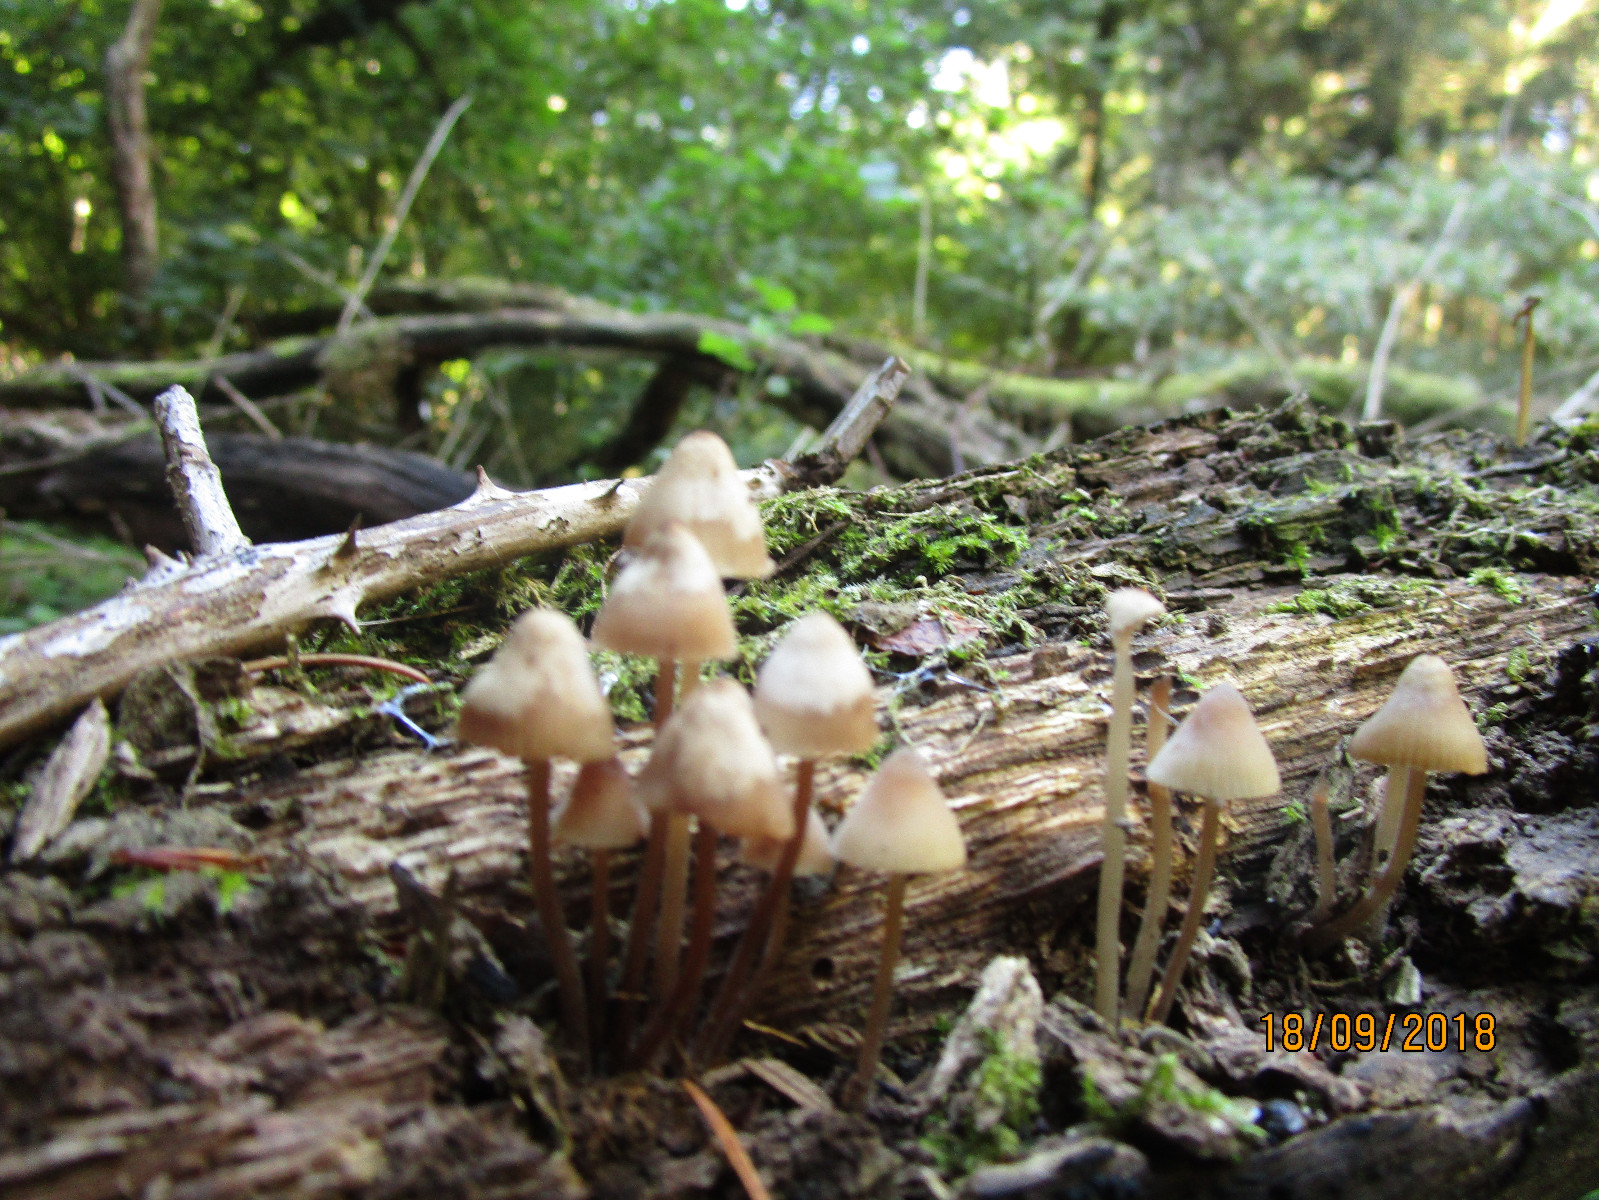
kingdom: Fungi
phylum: Basidiomycota
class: Agaricomycetes
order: Agaricales
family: Mycenaceae
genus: Mycena
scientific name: Mycena galericulata
